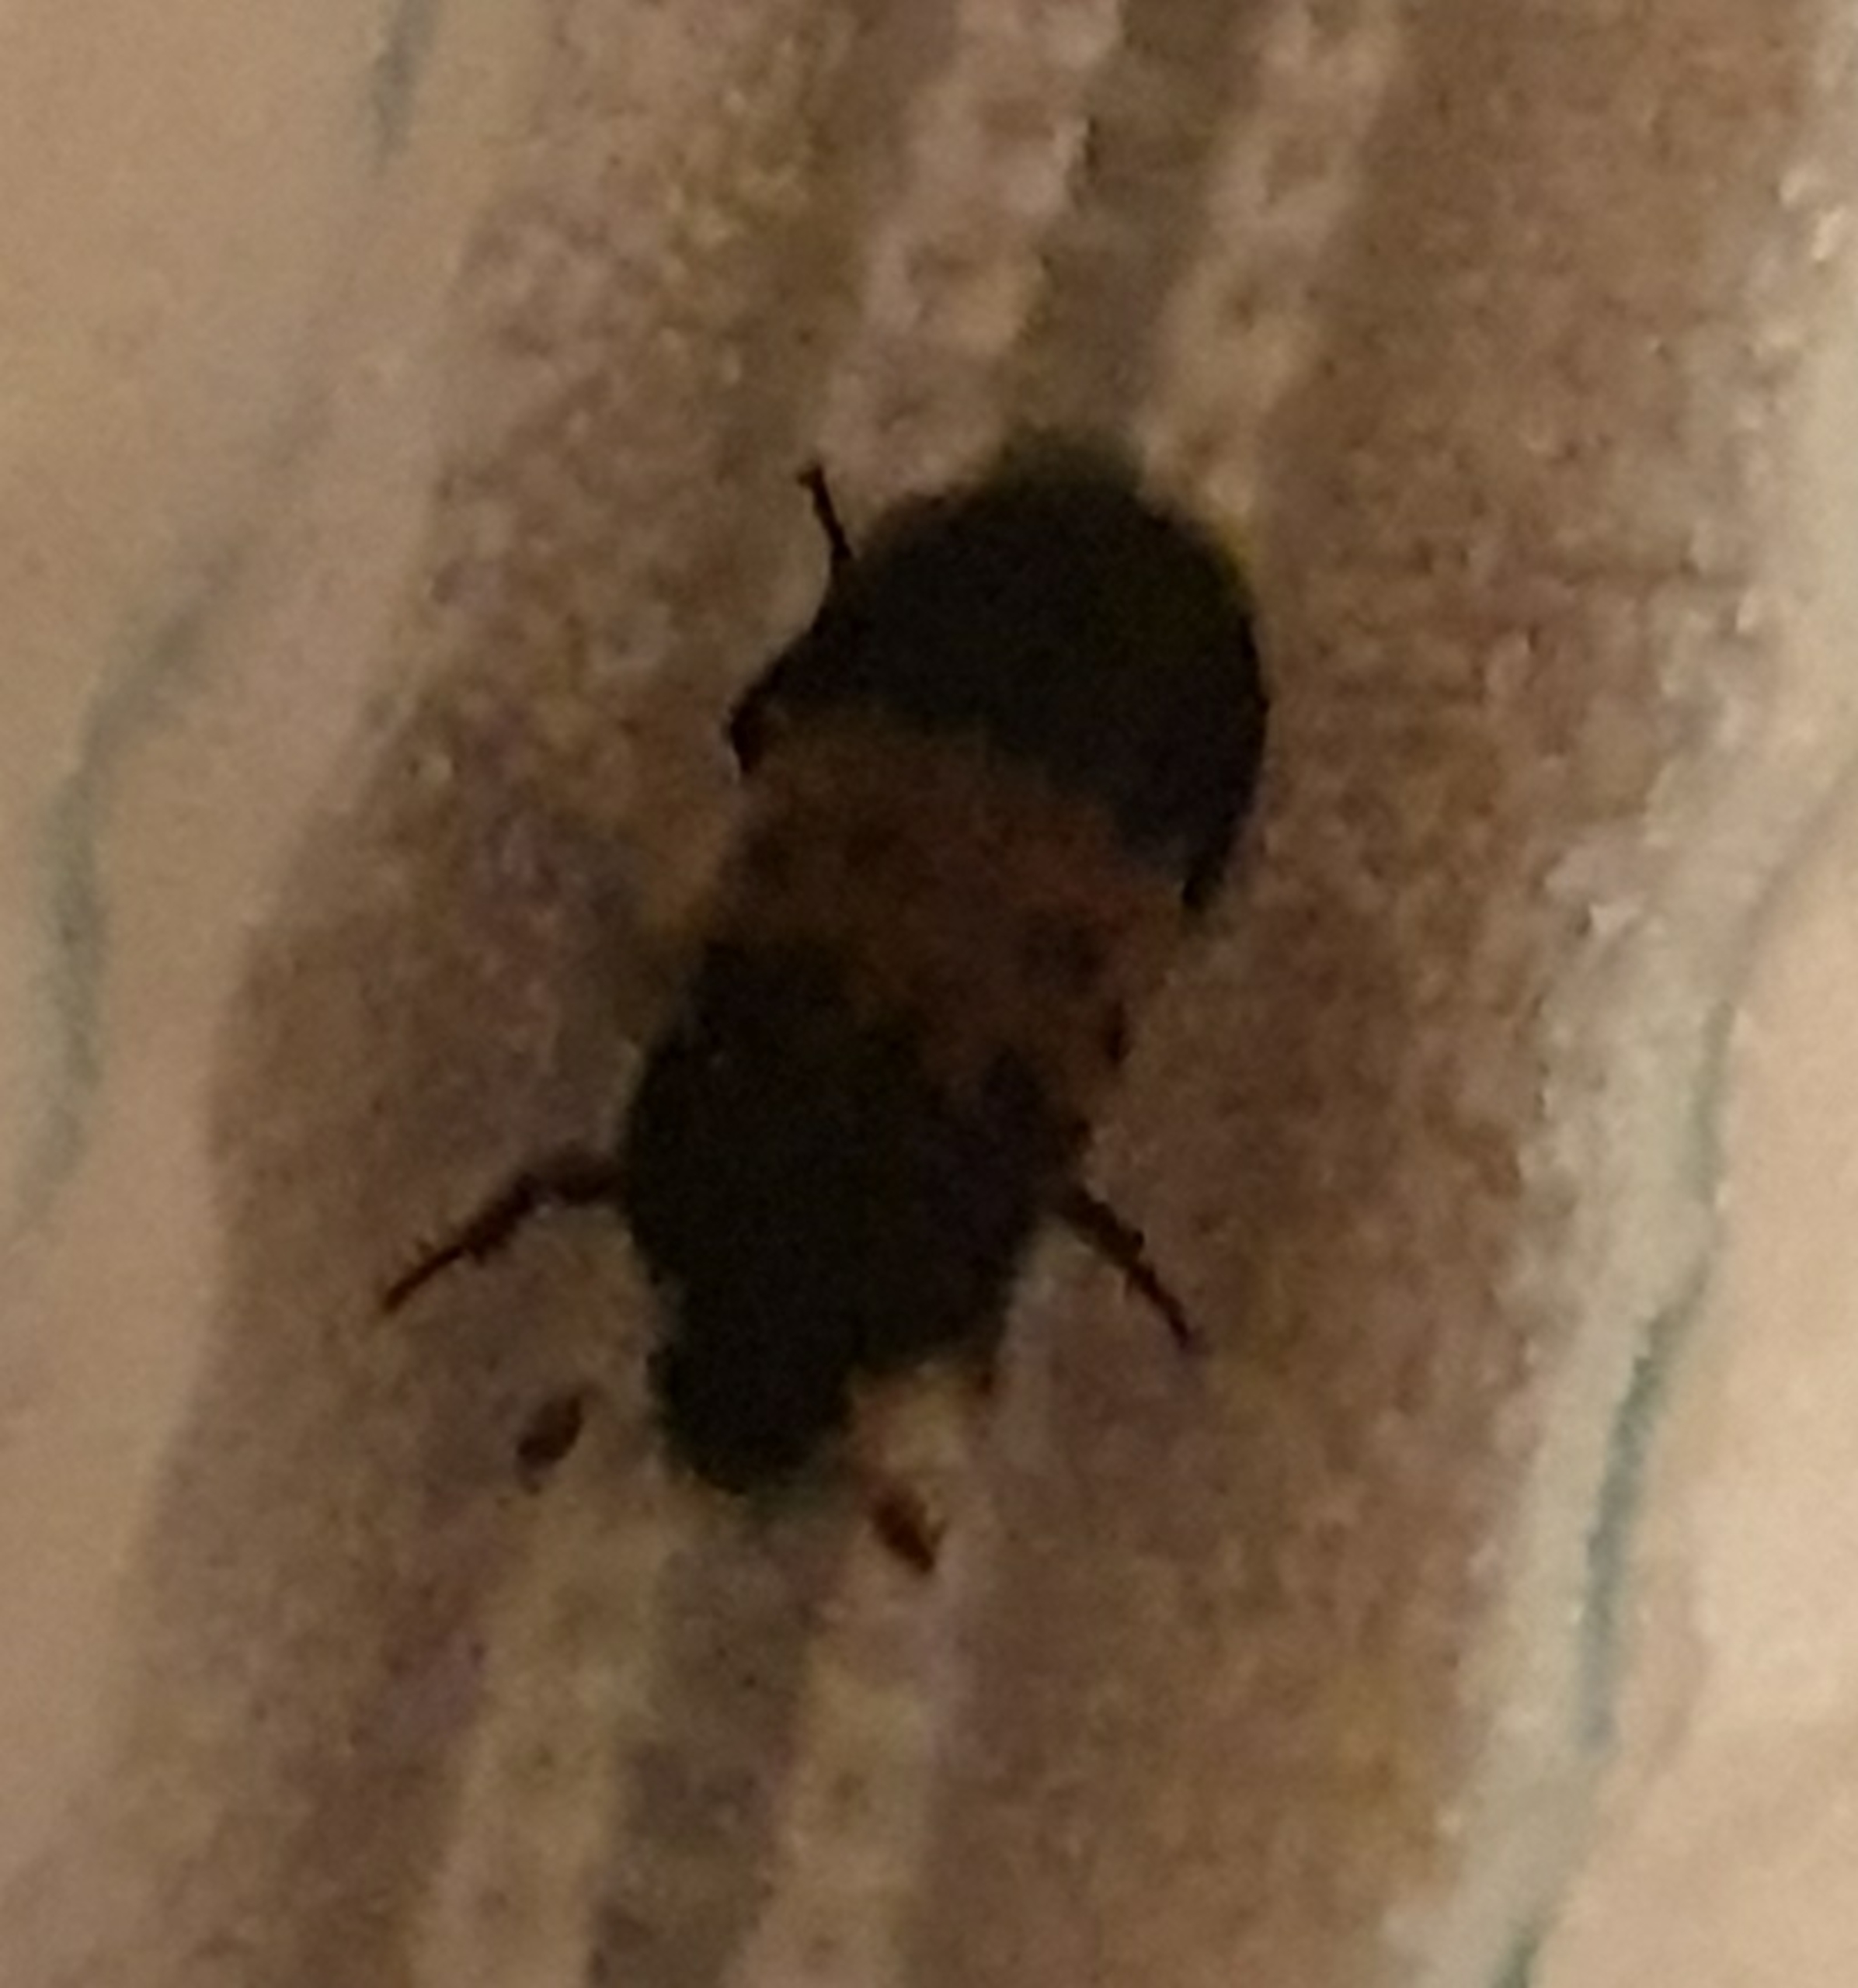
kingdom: Animalia
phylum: Arthropoda
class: Insecta
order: Coleoptera
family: Dermestidae
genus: Dermestes
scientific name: Dermestes lardarius
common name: Flæskeklanner
